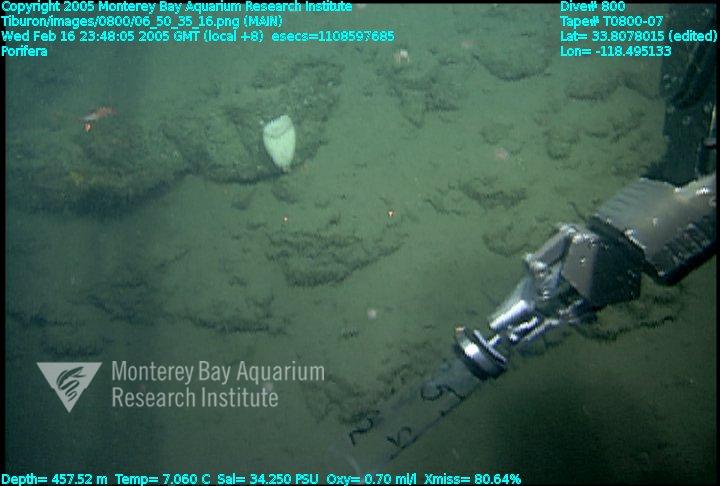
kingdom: Animalia
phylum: Porifera
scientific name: Porifera
